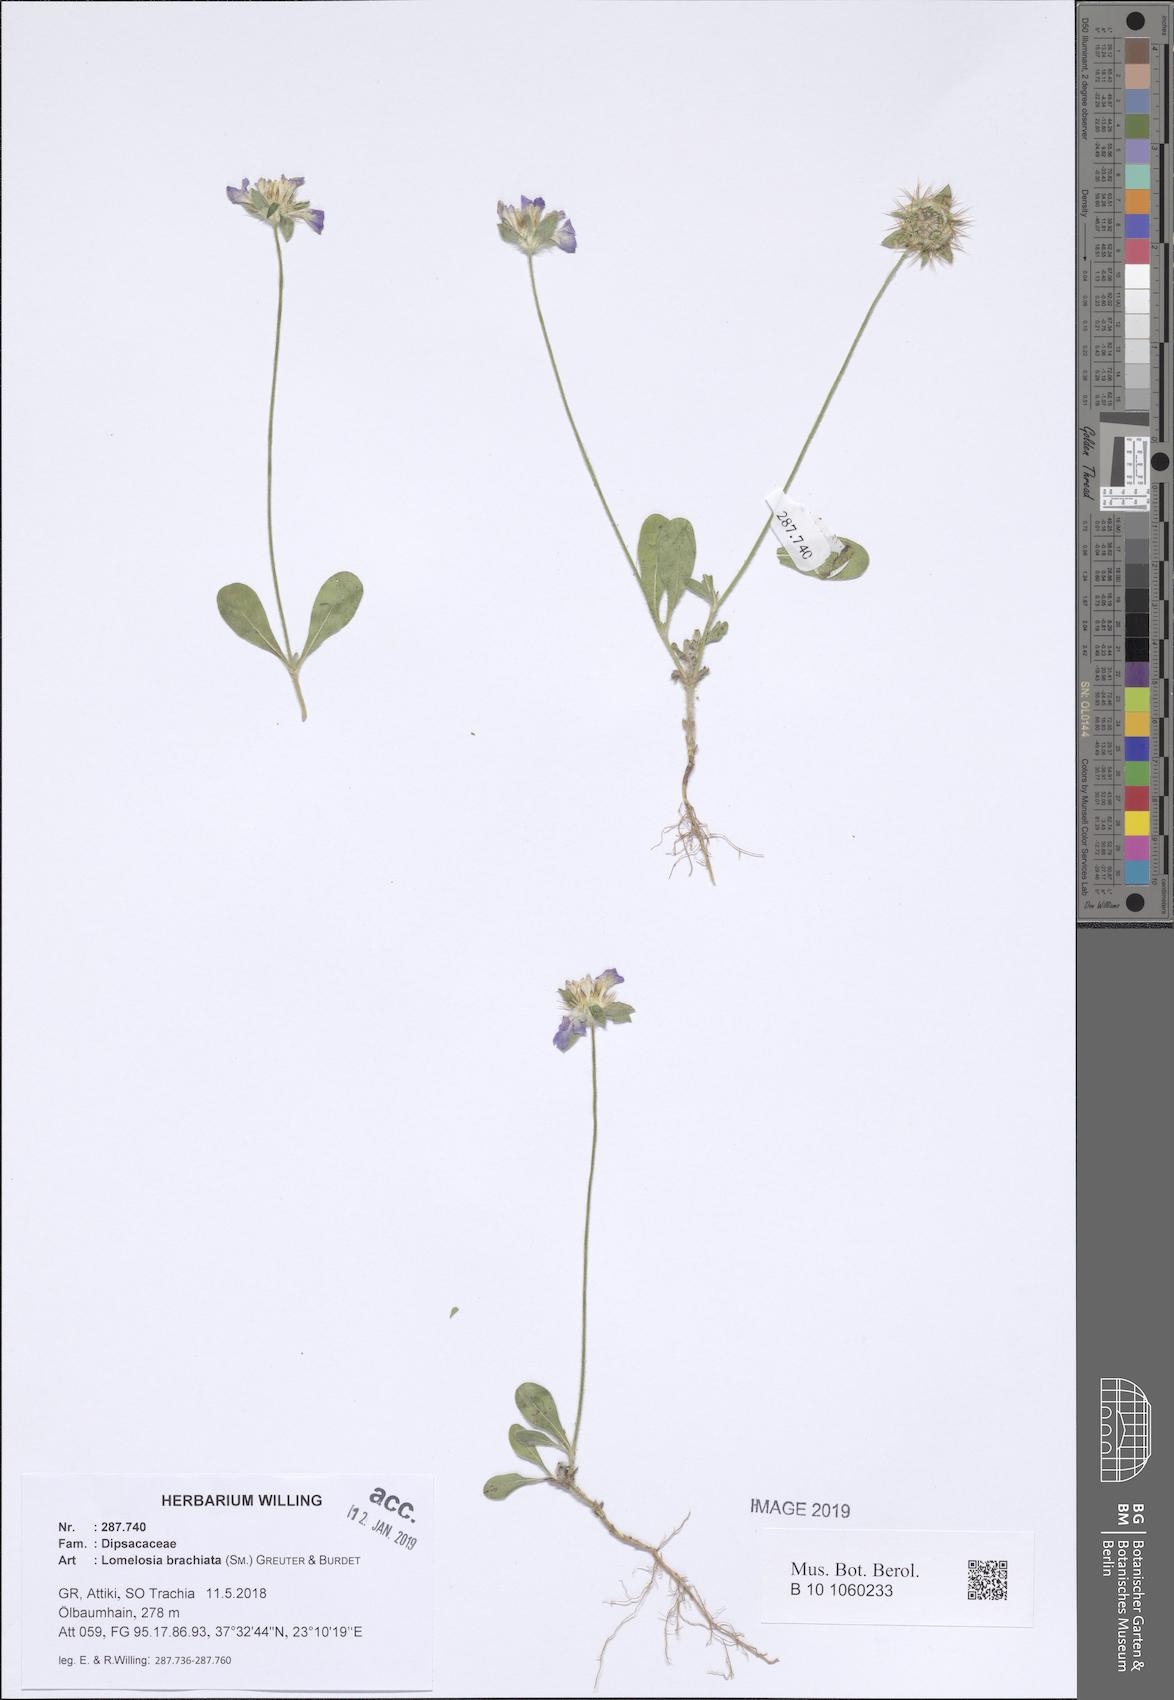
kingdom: Plantae
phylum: Tracheophyta
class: Magnoliopsida
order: Dipsacales
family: Caprifoliaceae
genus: Lomelosia
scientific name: Lomelosia brachiata
